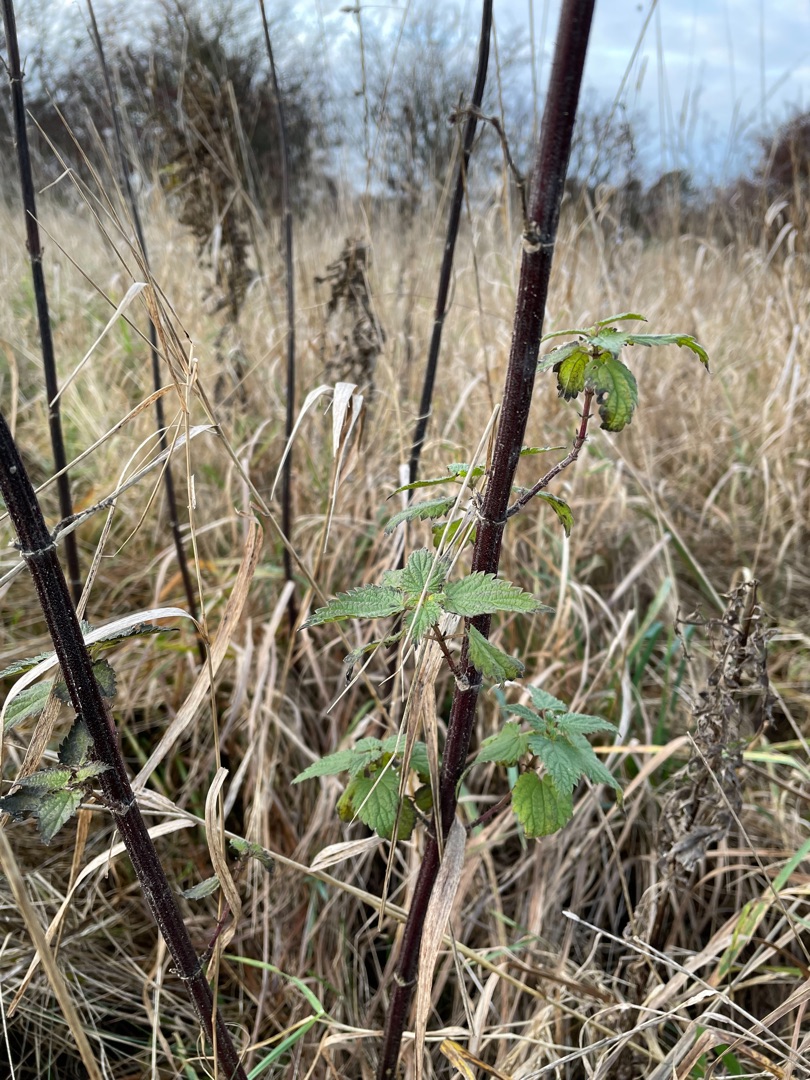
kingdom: Plantae
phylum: Tracheophyta
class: Magnoliopsida
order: Rosales
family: Urticaceae
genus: Urtica
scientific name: Urtica dioica
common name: Stor nælde
